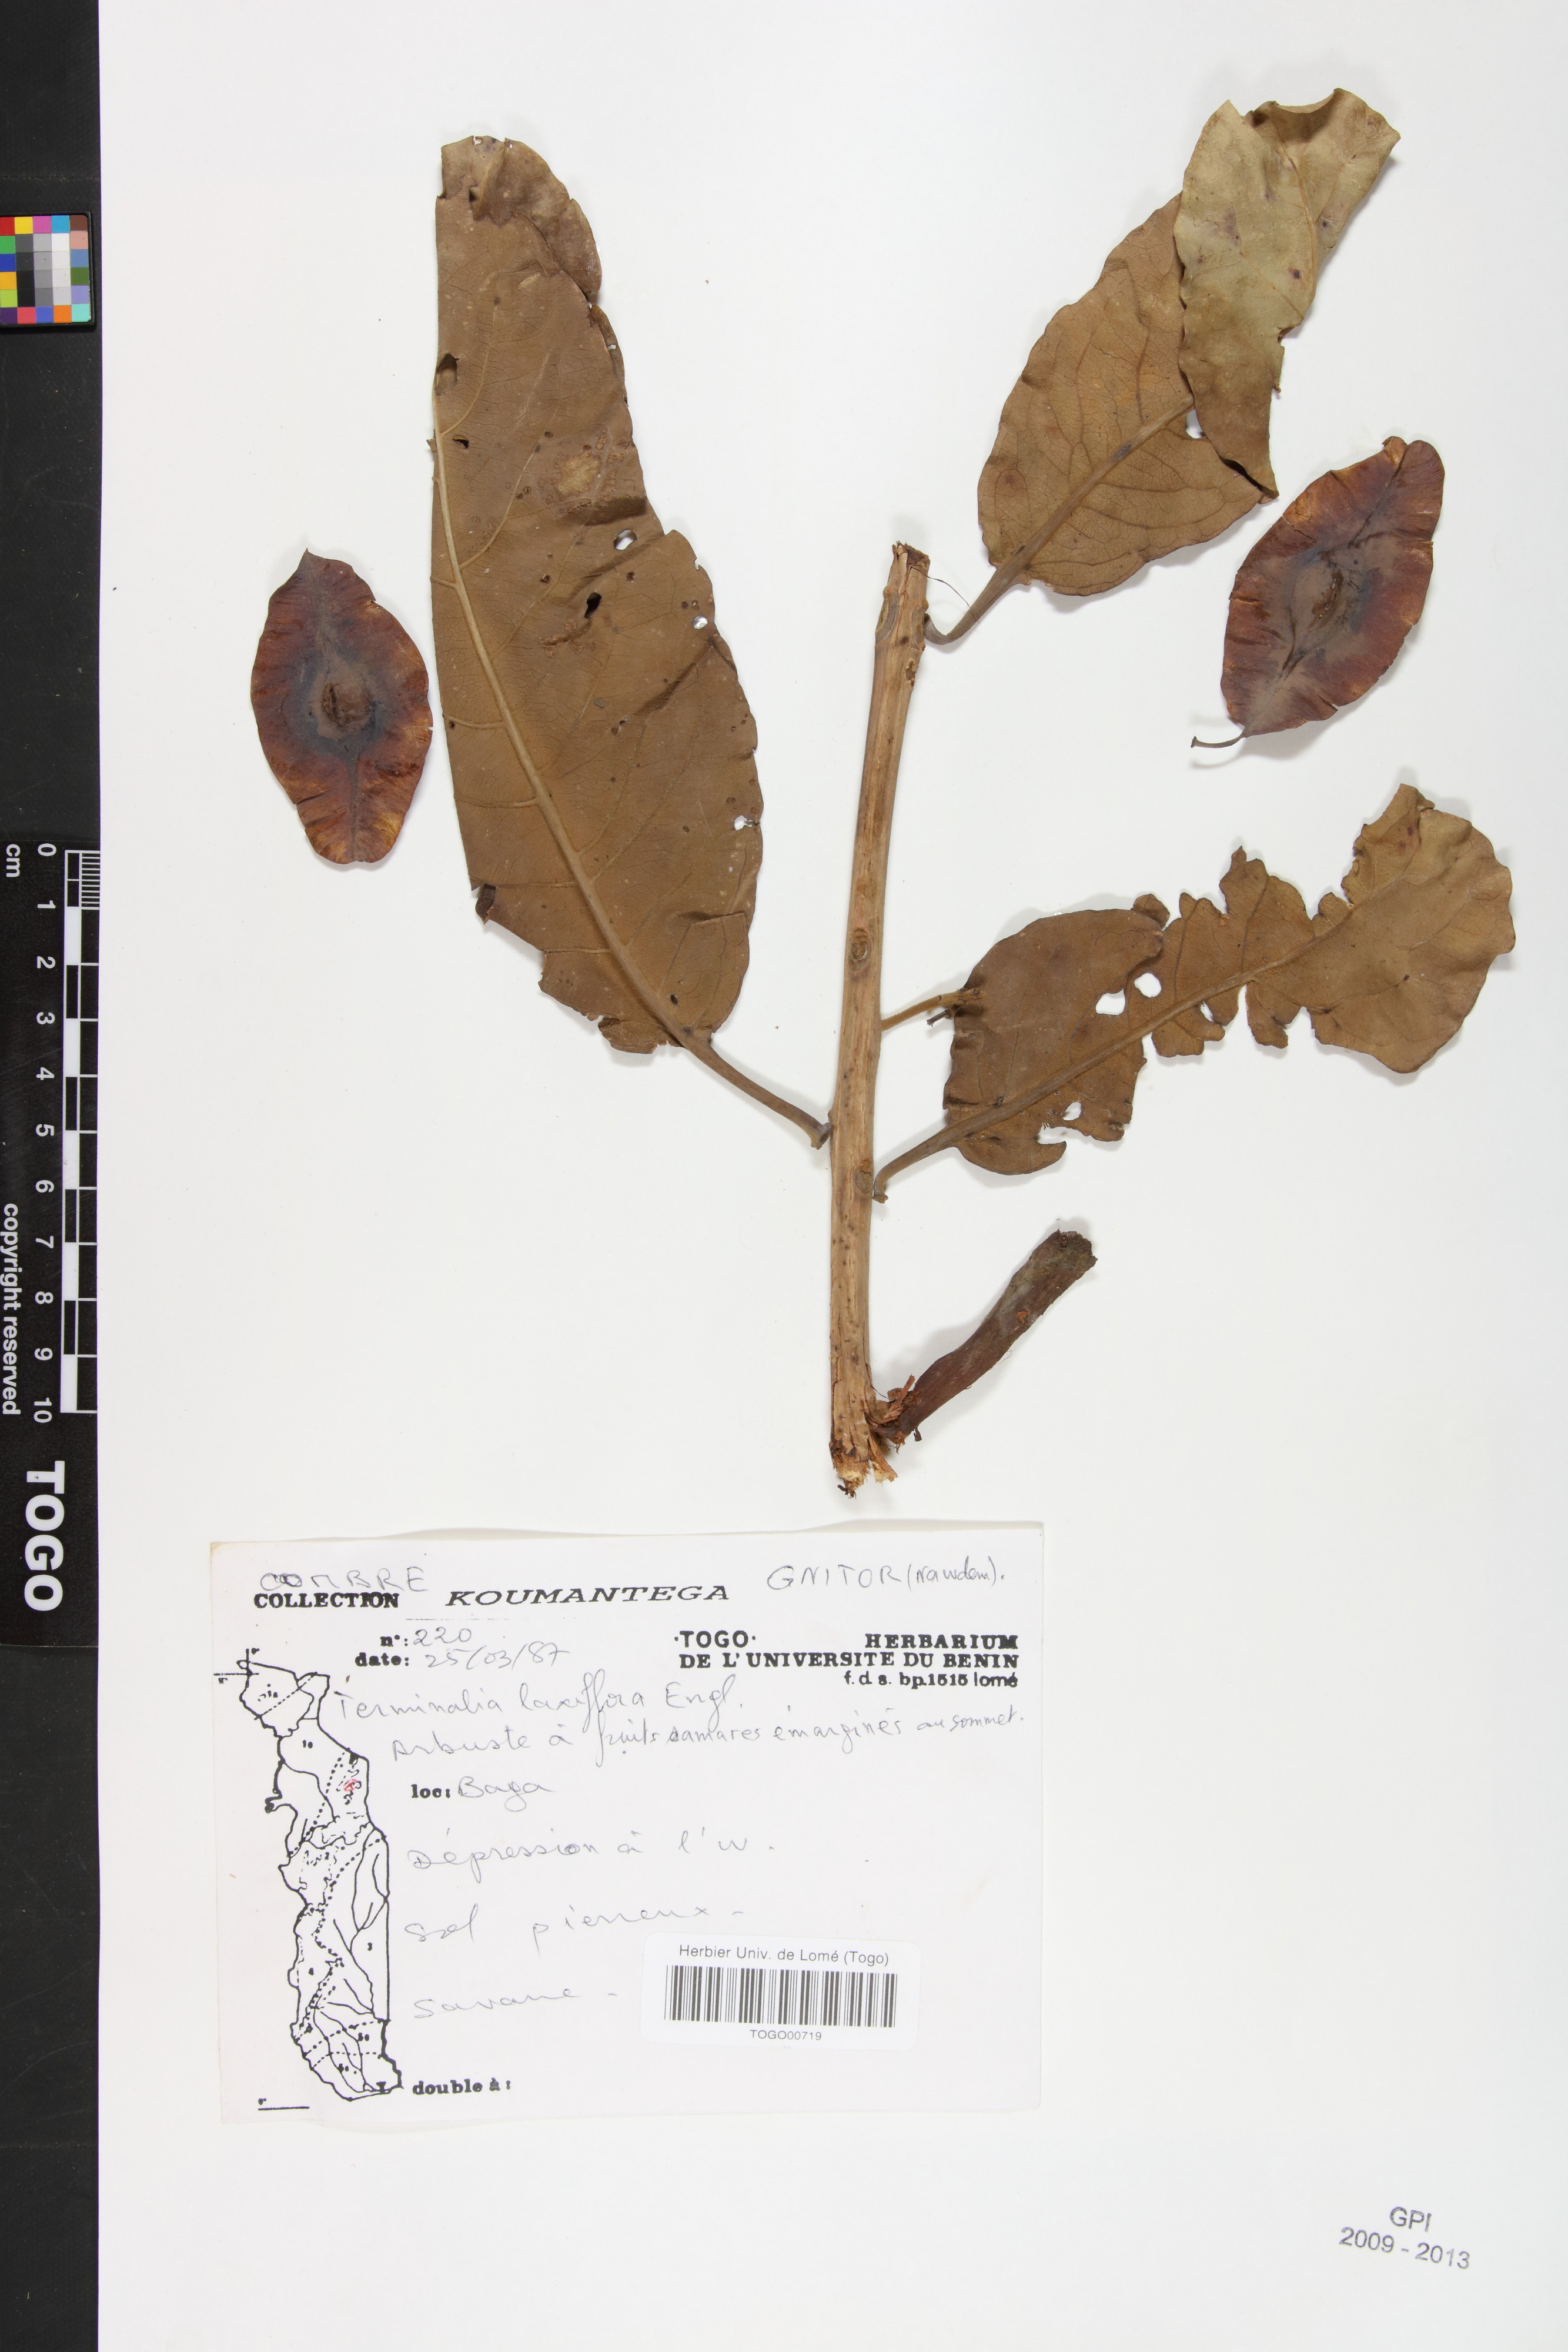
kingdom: Plantae
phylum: Tracheophyta
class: Magnoliopsida
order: Myrtales
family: Combretaceae
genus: Terminalia
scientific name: Terminalia laxiflora
